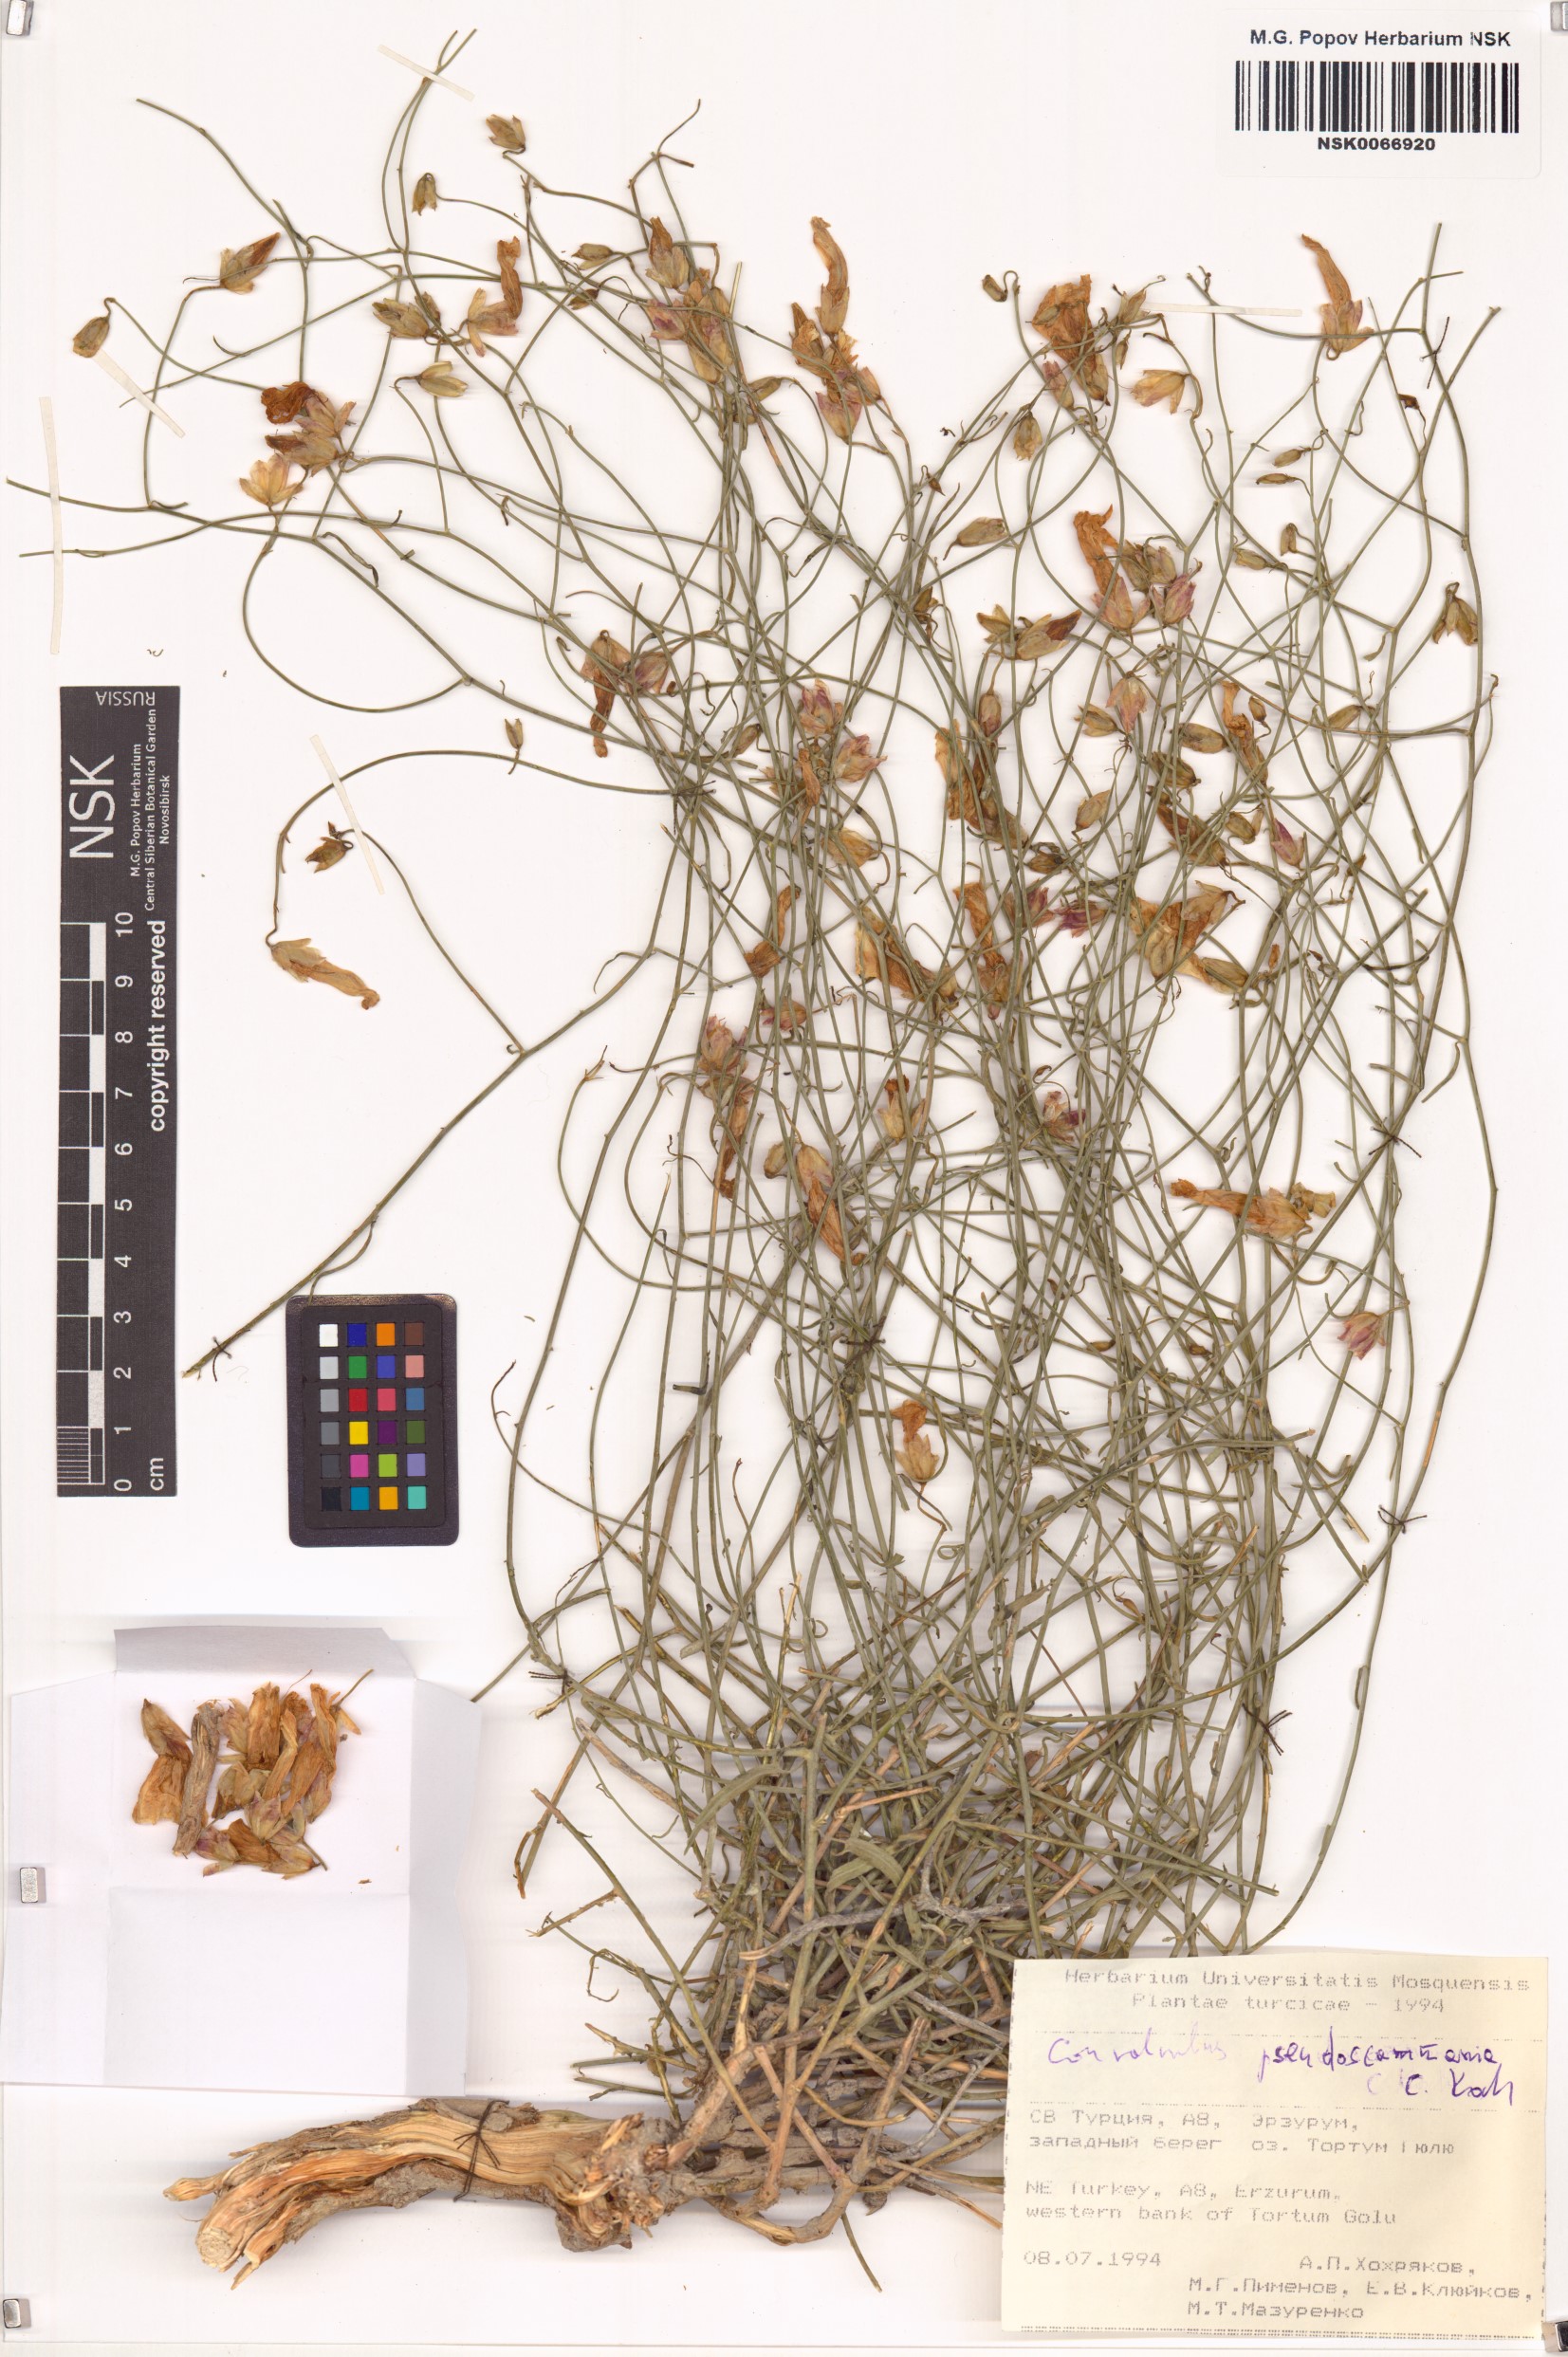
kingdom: Plantae
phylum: Tracheophyta
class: Magnoliopsida
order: Solanales
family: Convolvulaceae
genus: Convolvulus
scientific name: Convolvulus pseudoscammonia
